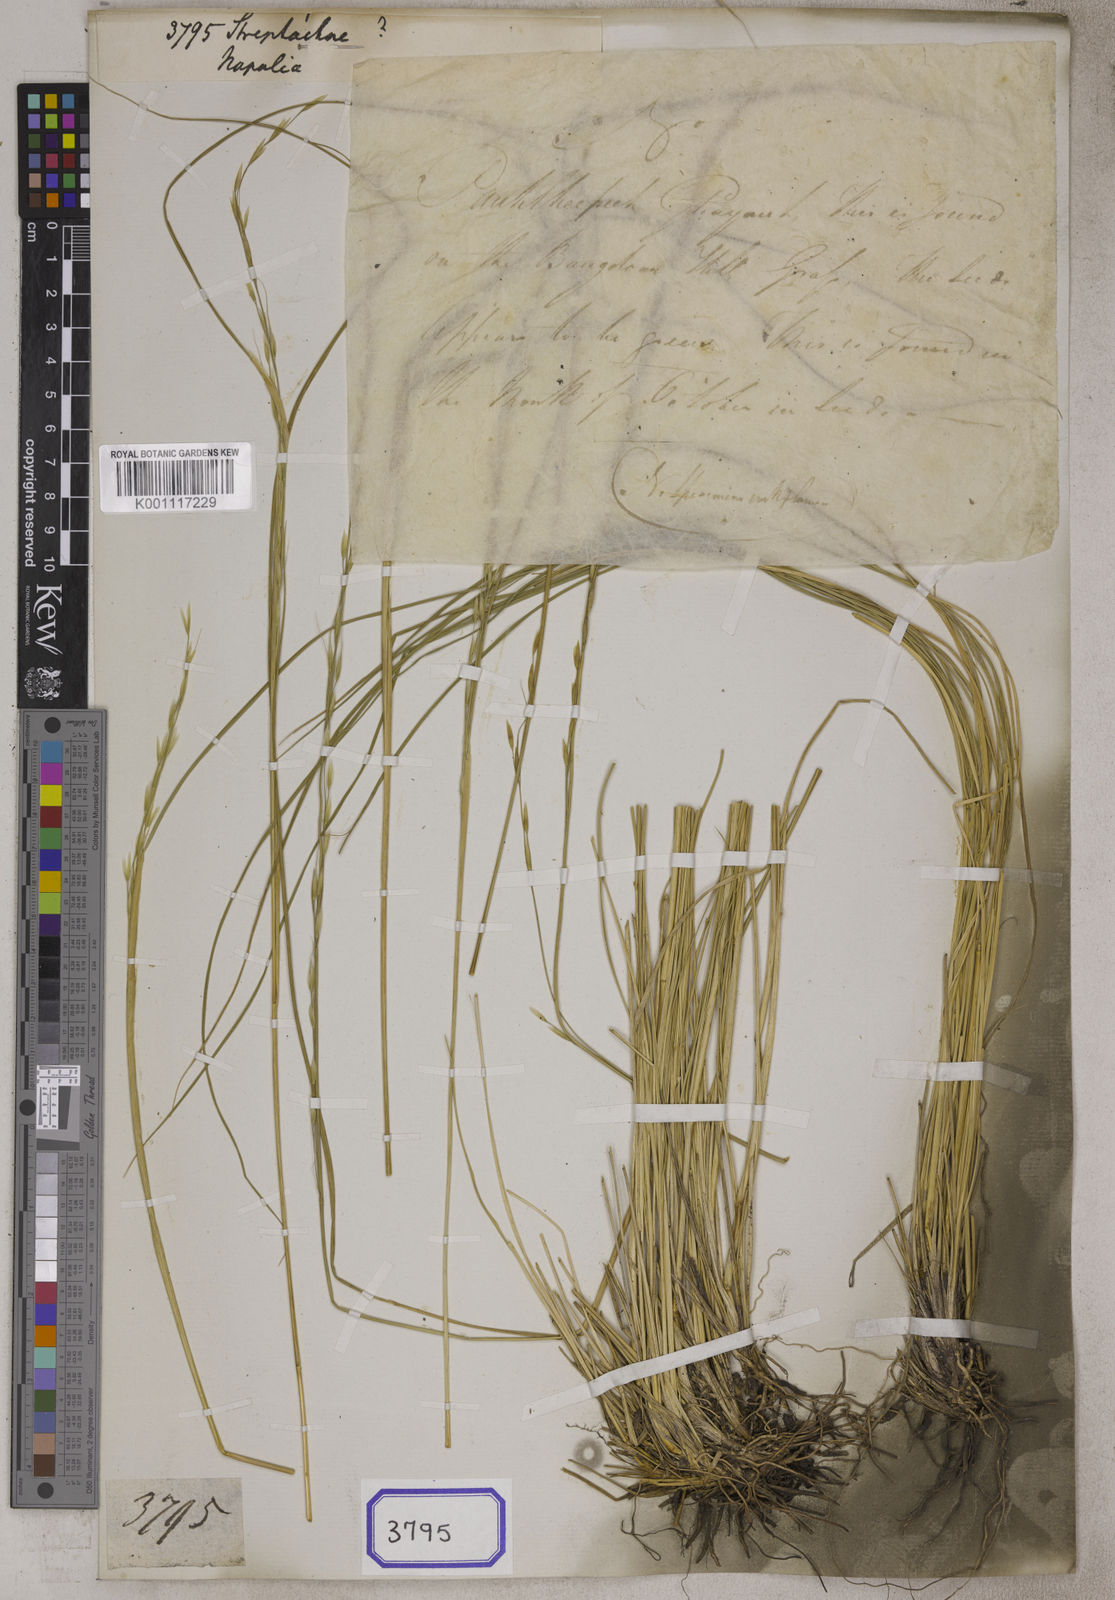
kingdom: Plantae
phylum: Tracheophyta
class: Liliopsida
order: Poales
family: Poaceae
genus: Aristida
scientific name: Aristida
